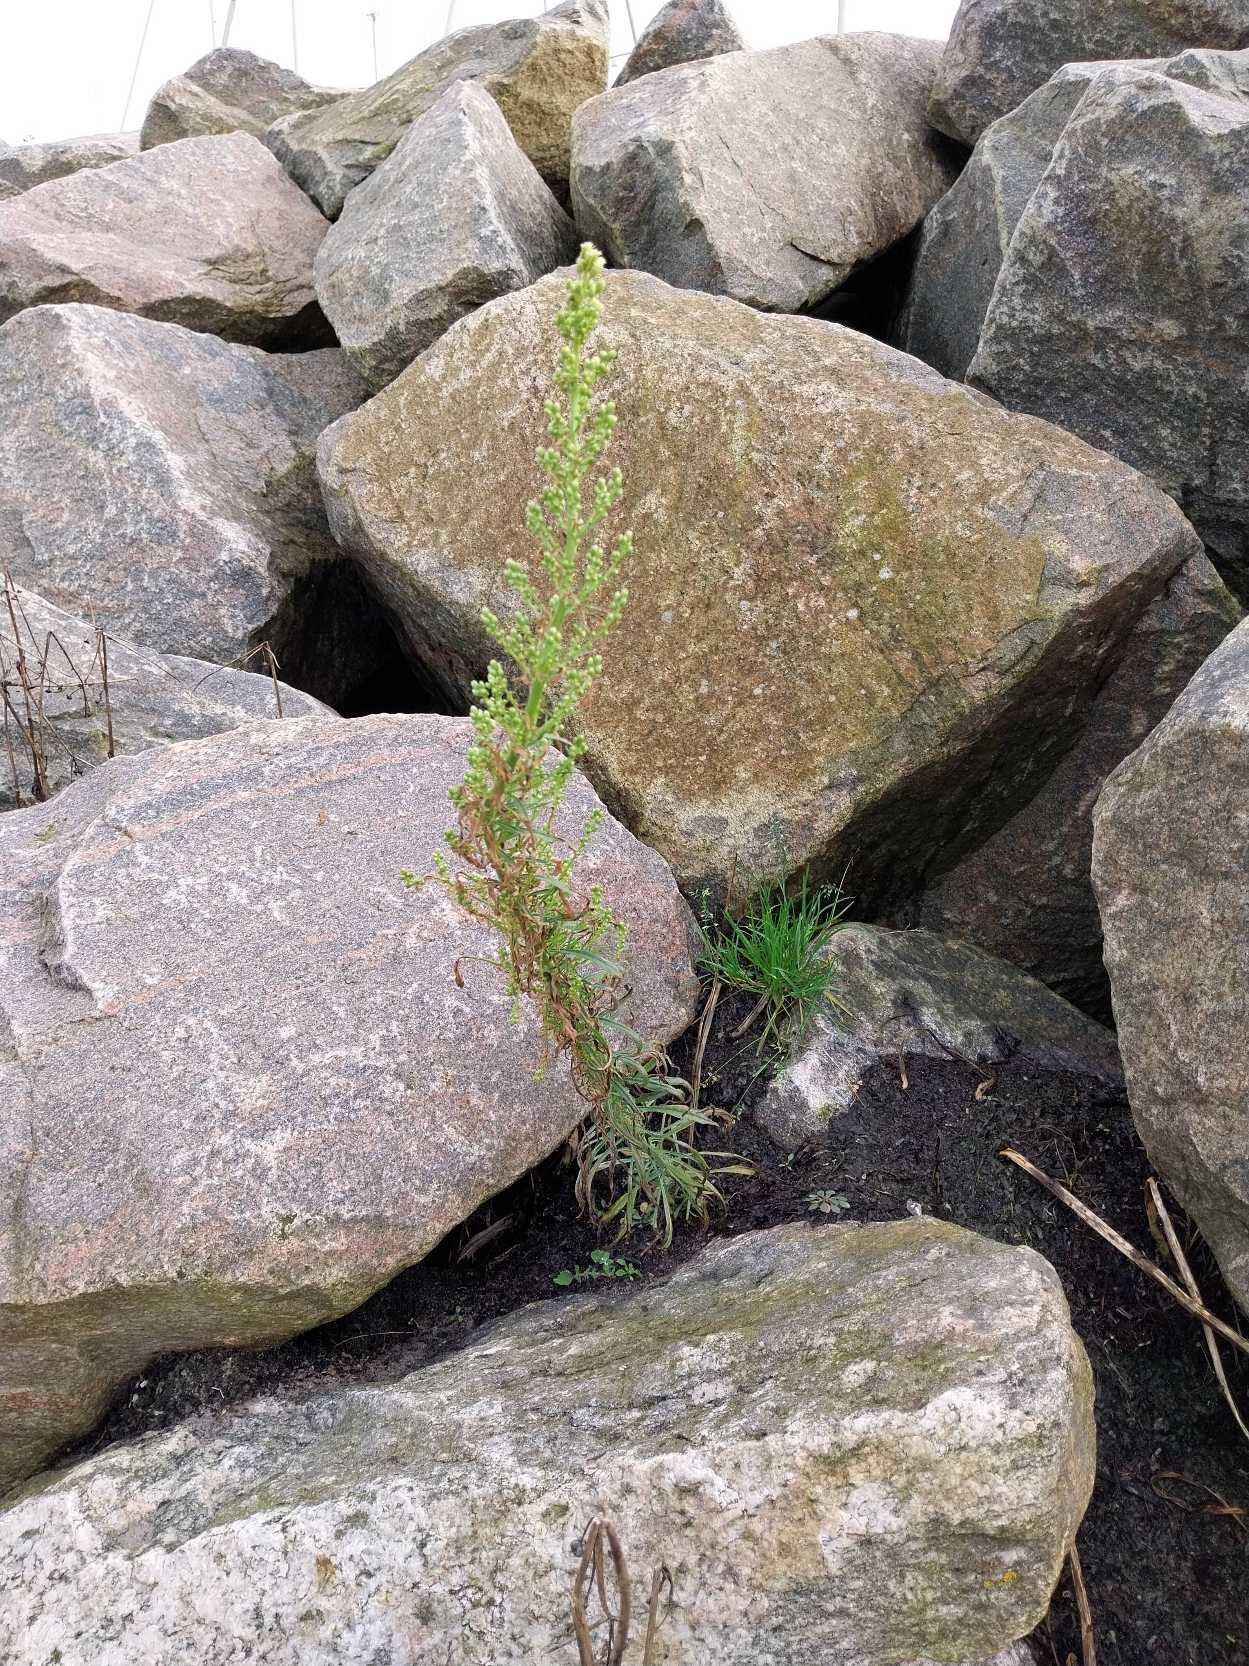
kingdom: Plantae
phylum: Tracheophyta
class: Magnoliopsida
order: Asterales
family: Asteraceae
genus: Erigeron
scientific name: Erigeron canadensis
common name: Kanadisk bakkestjerne
